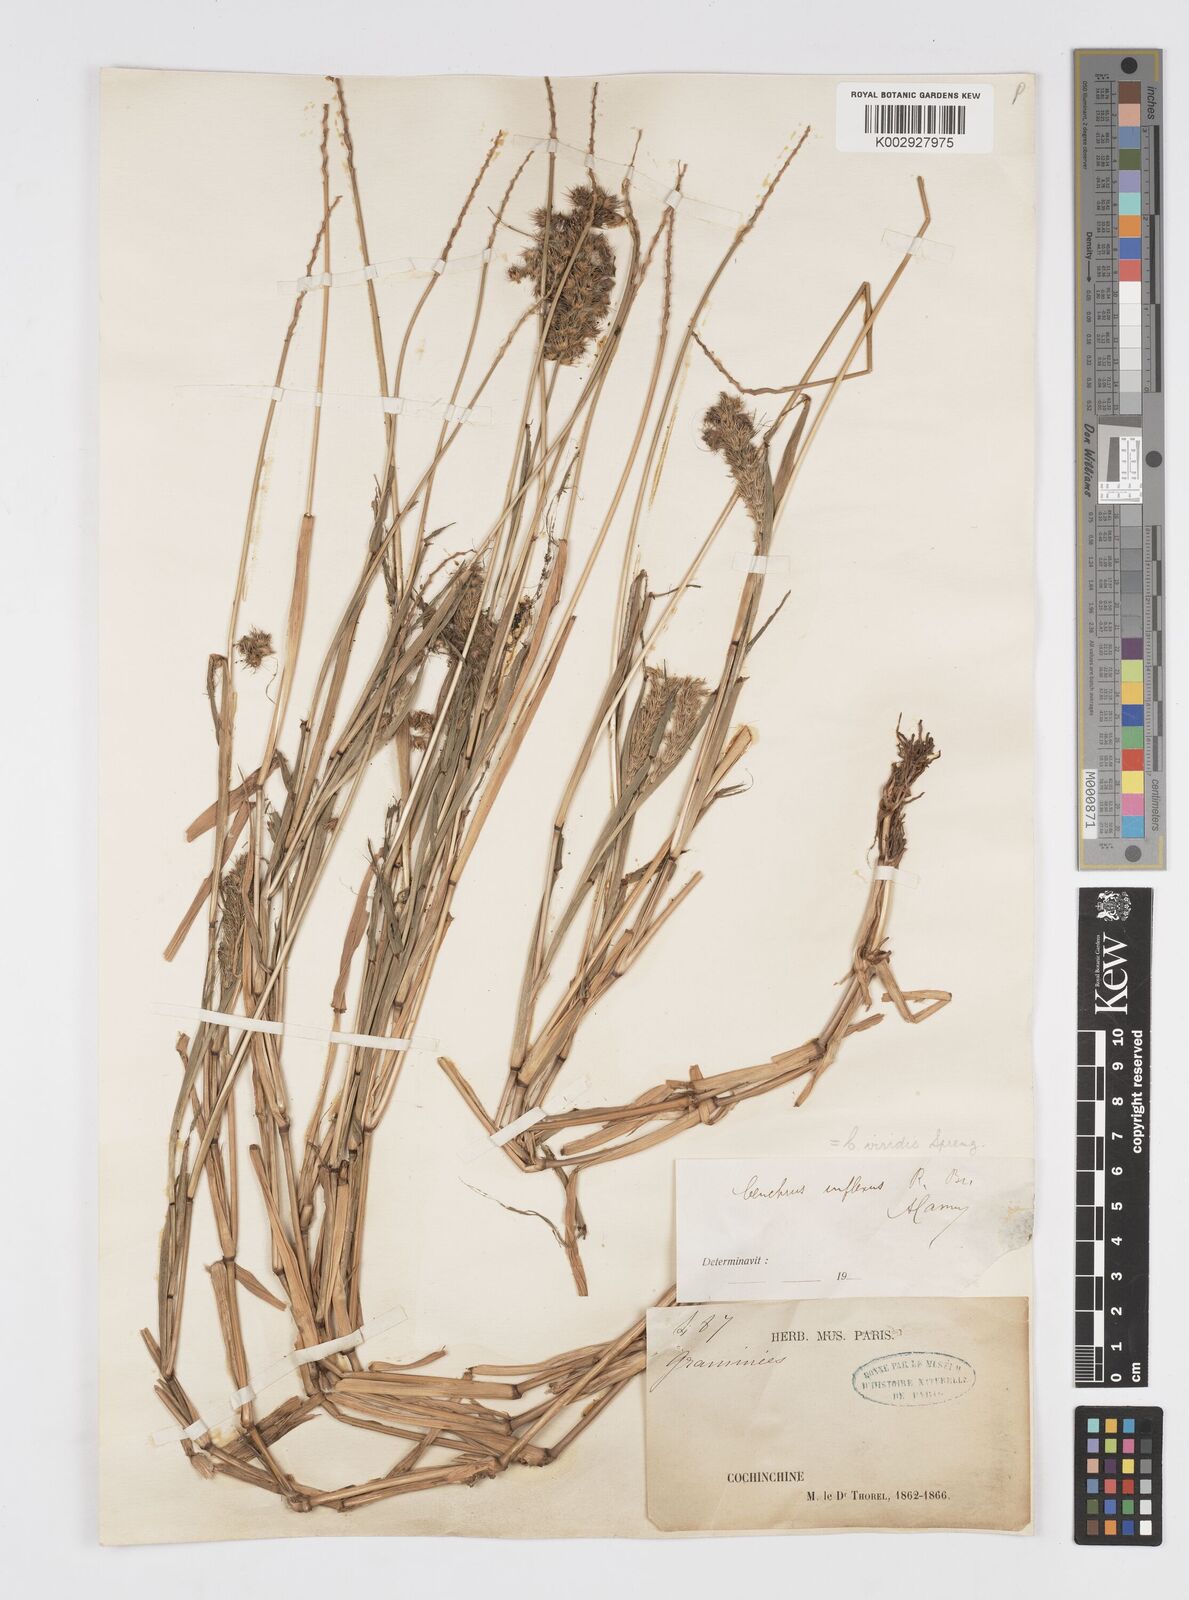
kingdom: Plantae
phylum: Tracheophyta
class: Liliopsida
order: Poales
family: Poaceae
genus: Cenchrus
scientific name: Cenchrus brownii
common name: Slim-bristle sandbur
